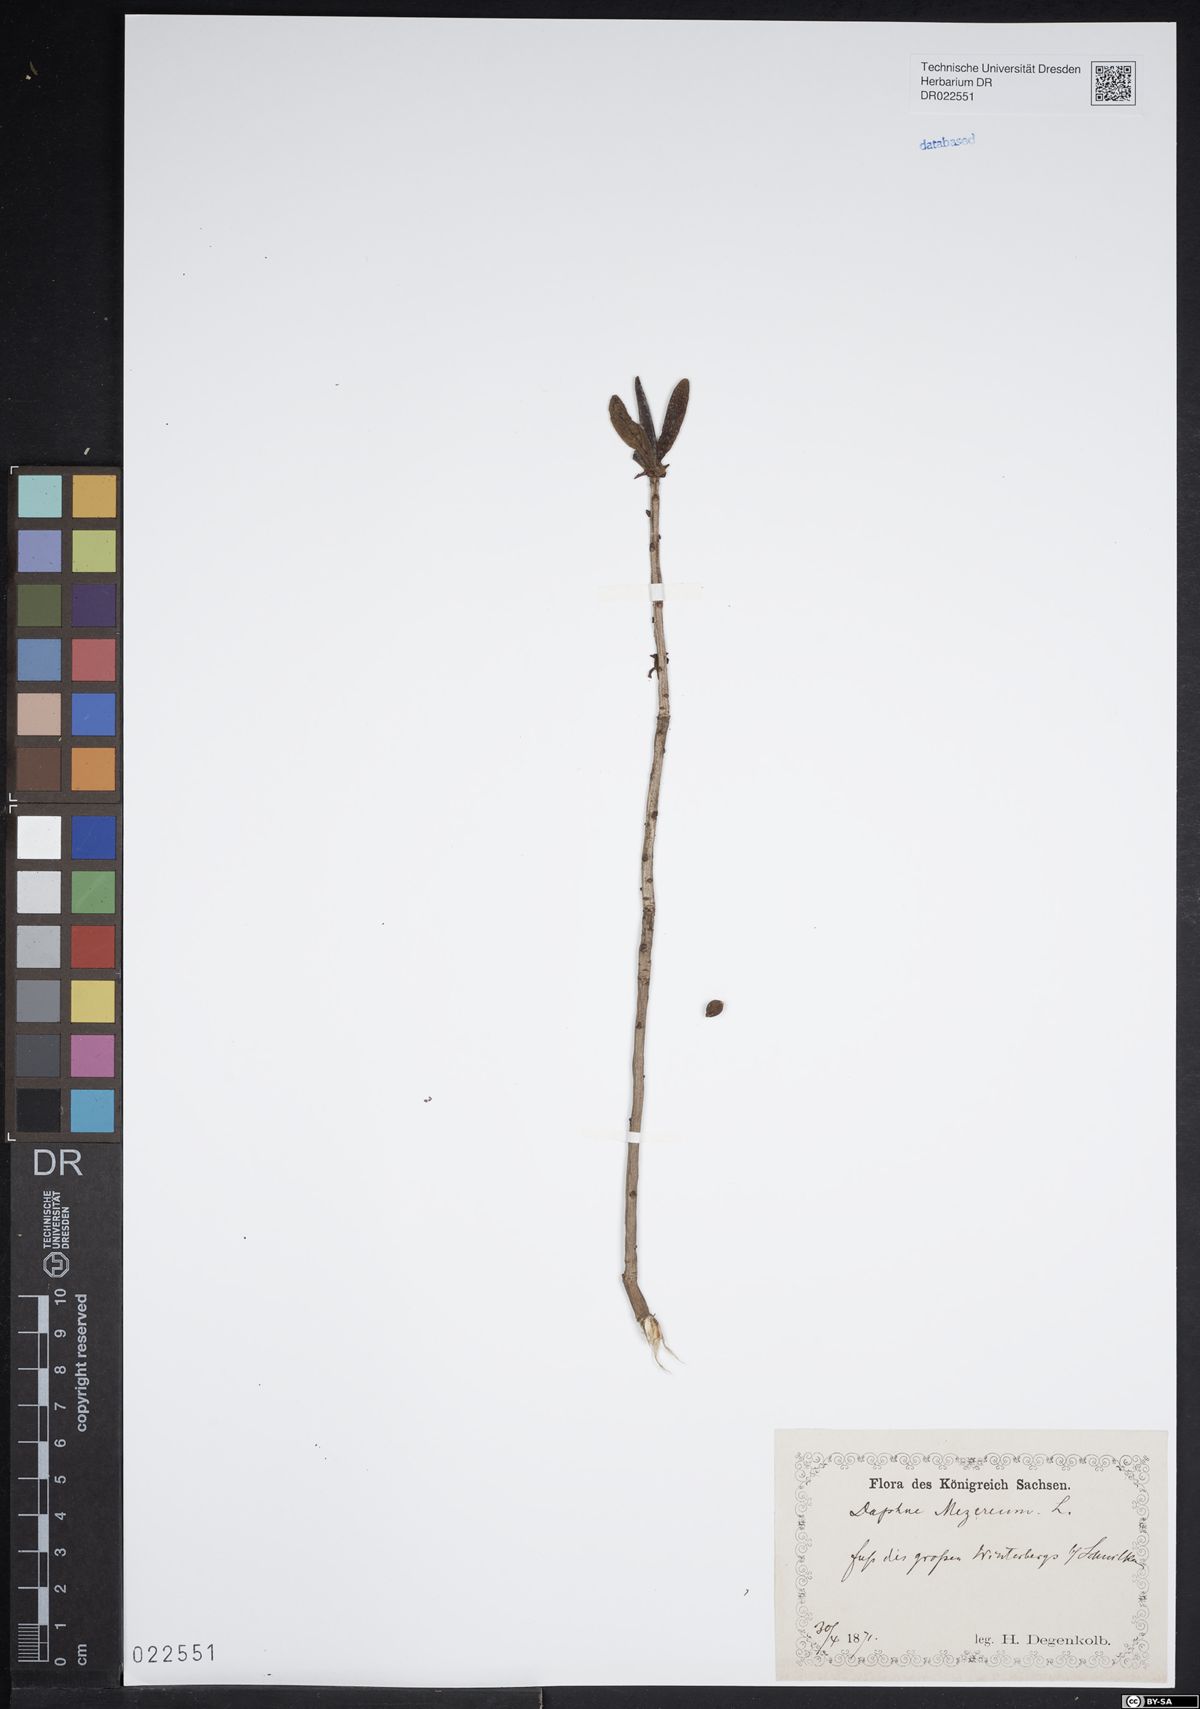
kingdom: Plantae
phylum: Tracheophyta
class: Magnoliopsida
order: Malvales
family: Thymelaeaceae
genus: Daphne
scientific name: Daphne mezereum
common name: Mezereon
